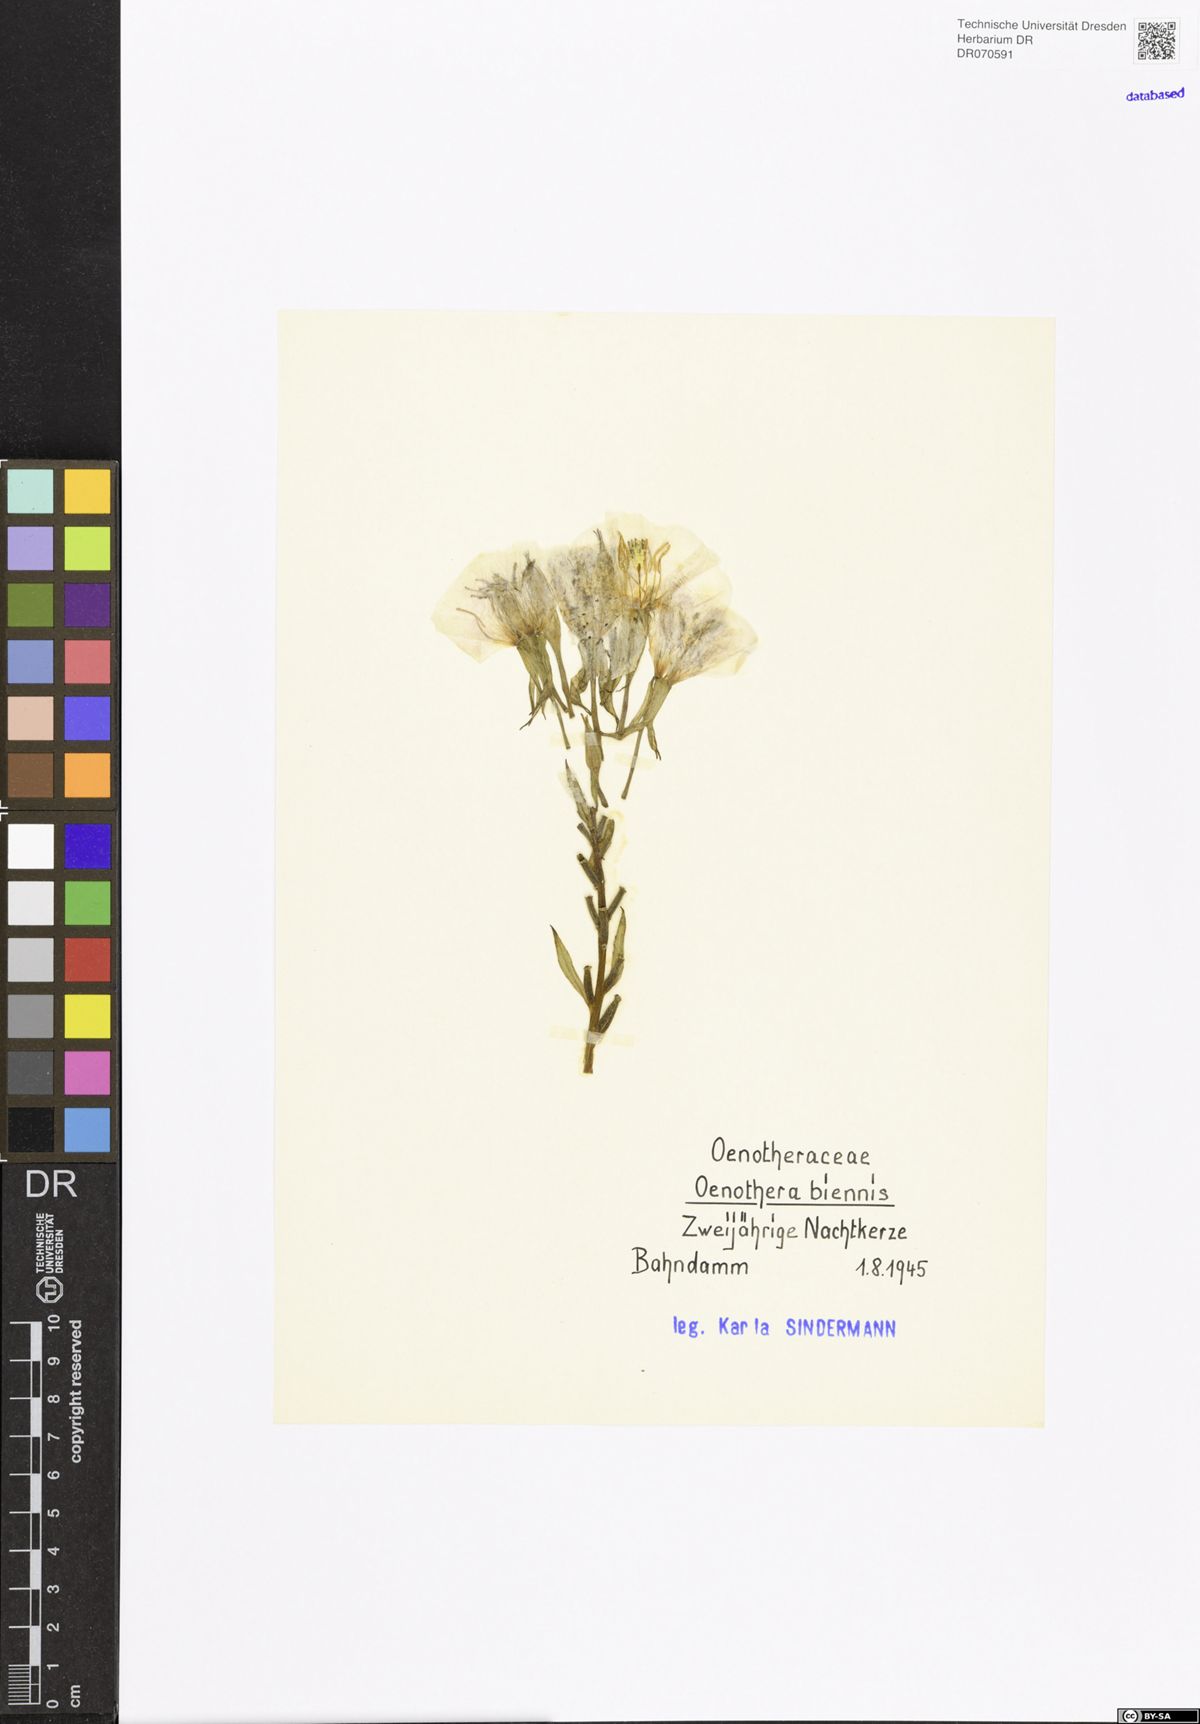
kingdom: Plantae
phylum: Tracheophyta
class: Magnoliopsida
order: Myrtales
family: Onagraceae
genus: Oenothera
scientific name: Oenothera biennis
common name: Common evening-primrose
